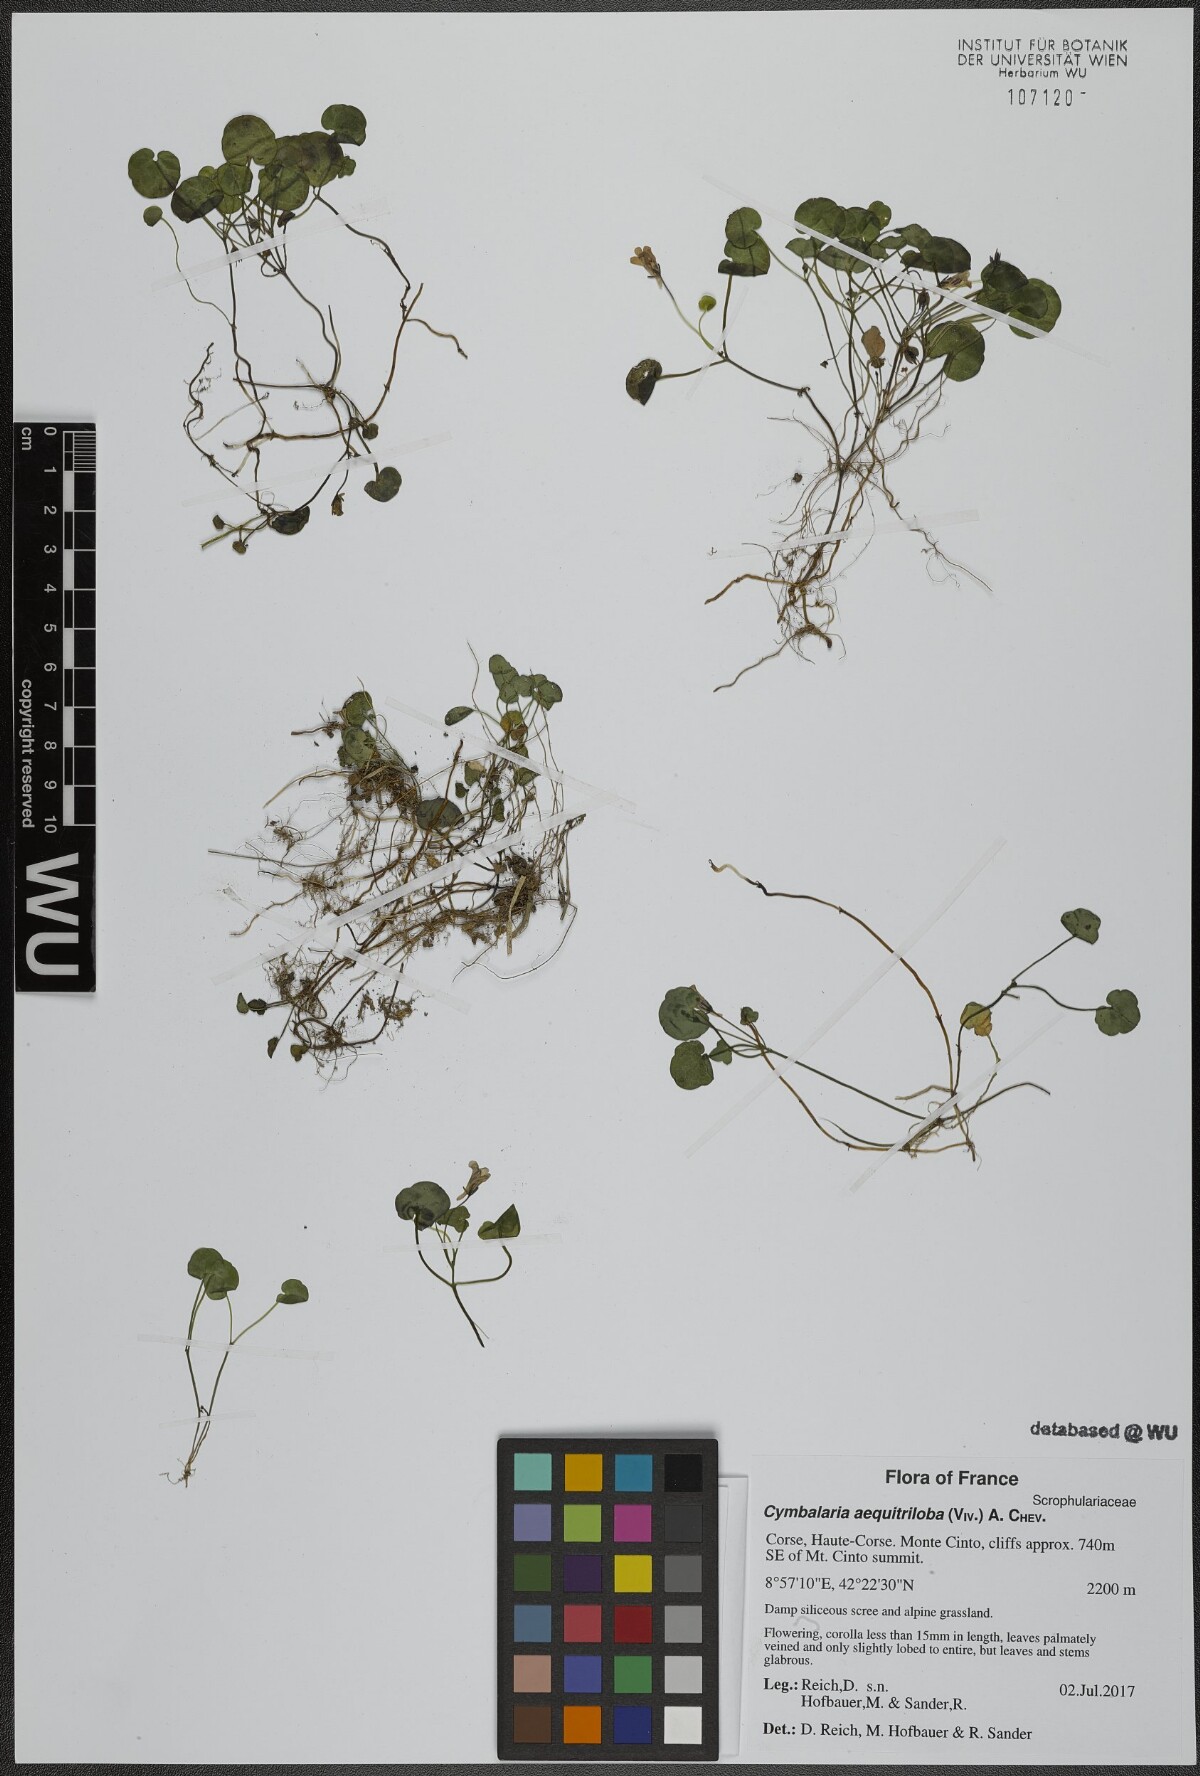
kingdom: Plantae
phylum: Tracheophyta
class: Magnoliopsida
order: Lamiales
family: Plantaginaceae
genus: Cymbalaria
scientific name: Cymbalaria aequitriloba
